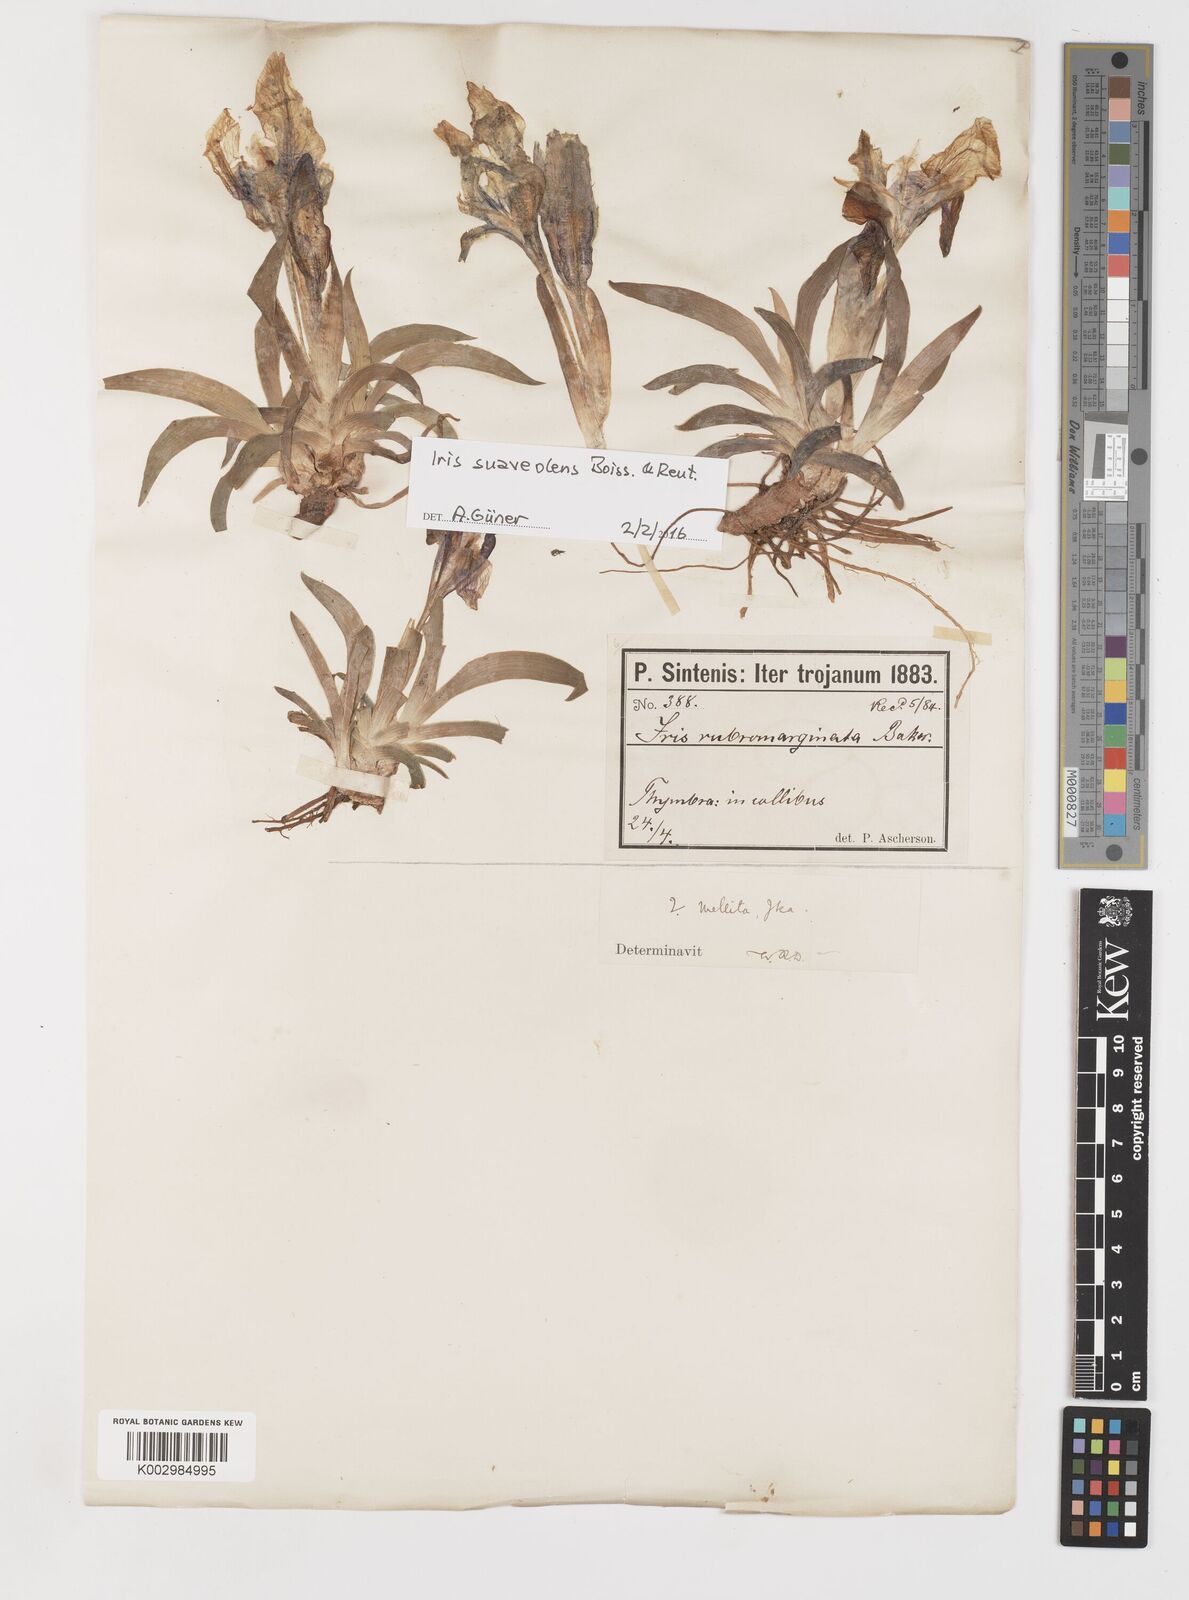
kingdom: Plantae
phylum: Tracheophyta
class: Liliopsida
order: Asparagales
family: Iridaceae
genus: Iris
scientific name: Iris suaveolens
